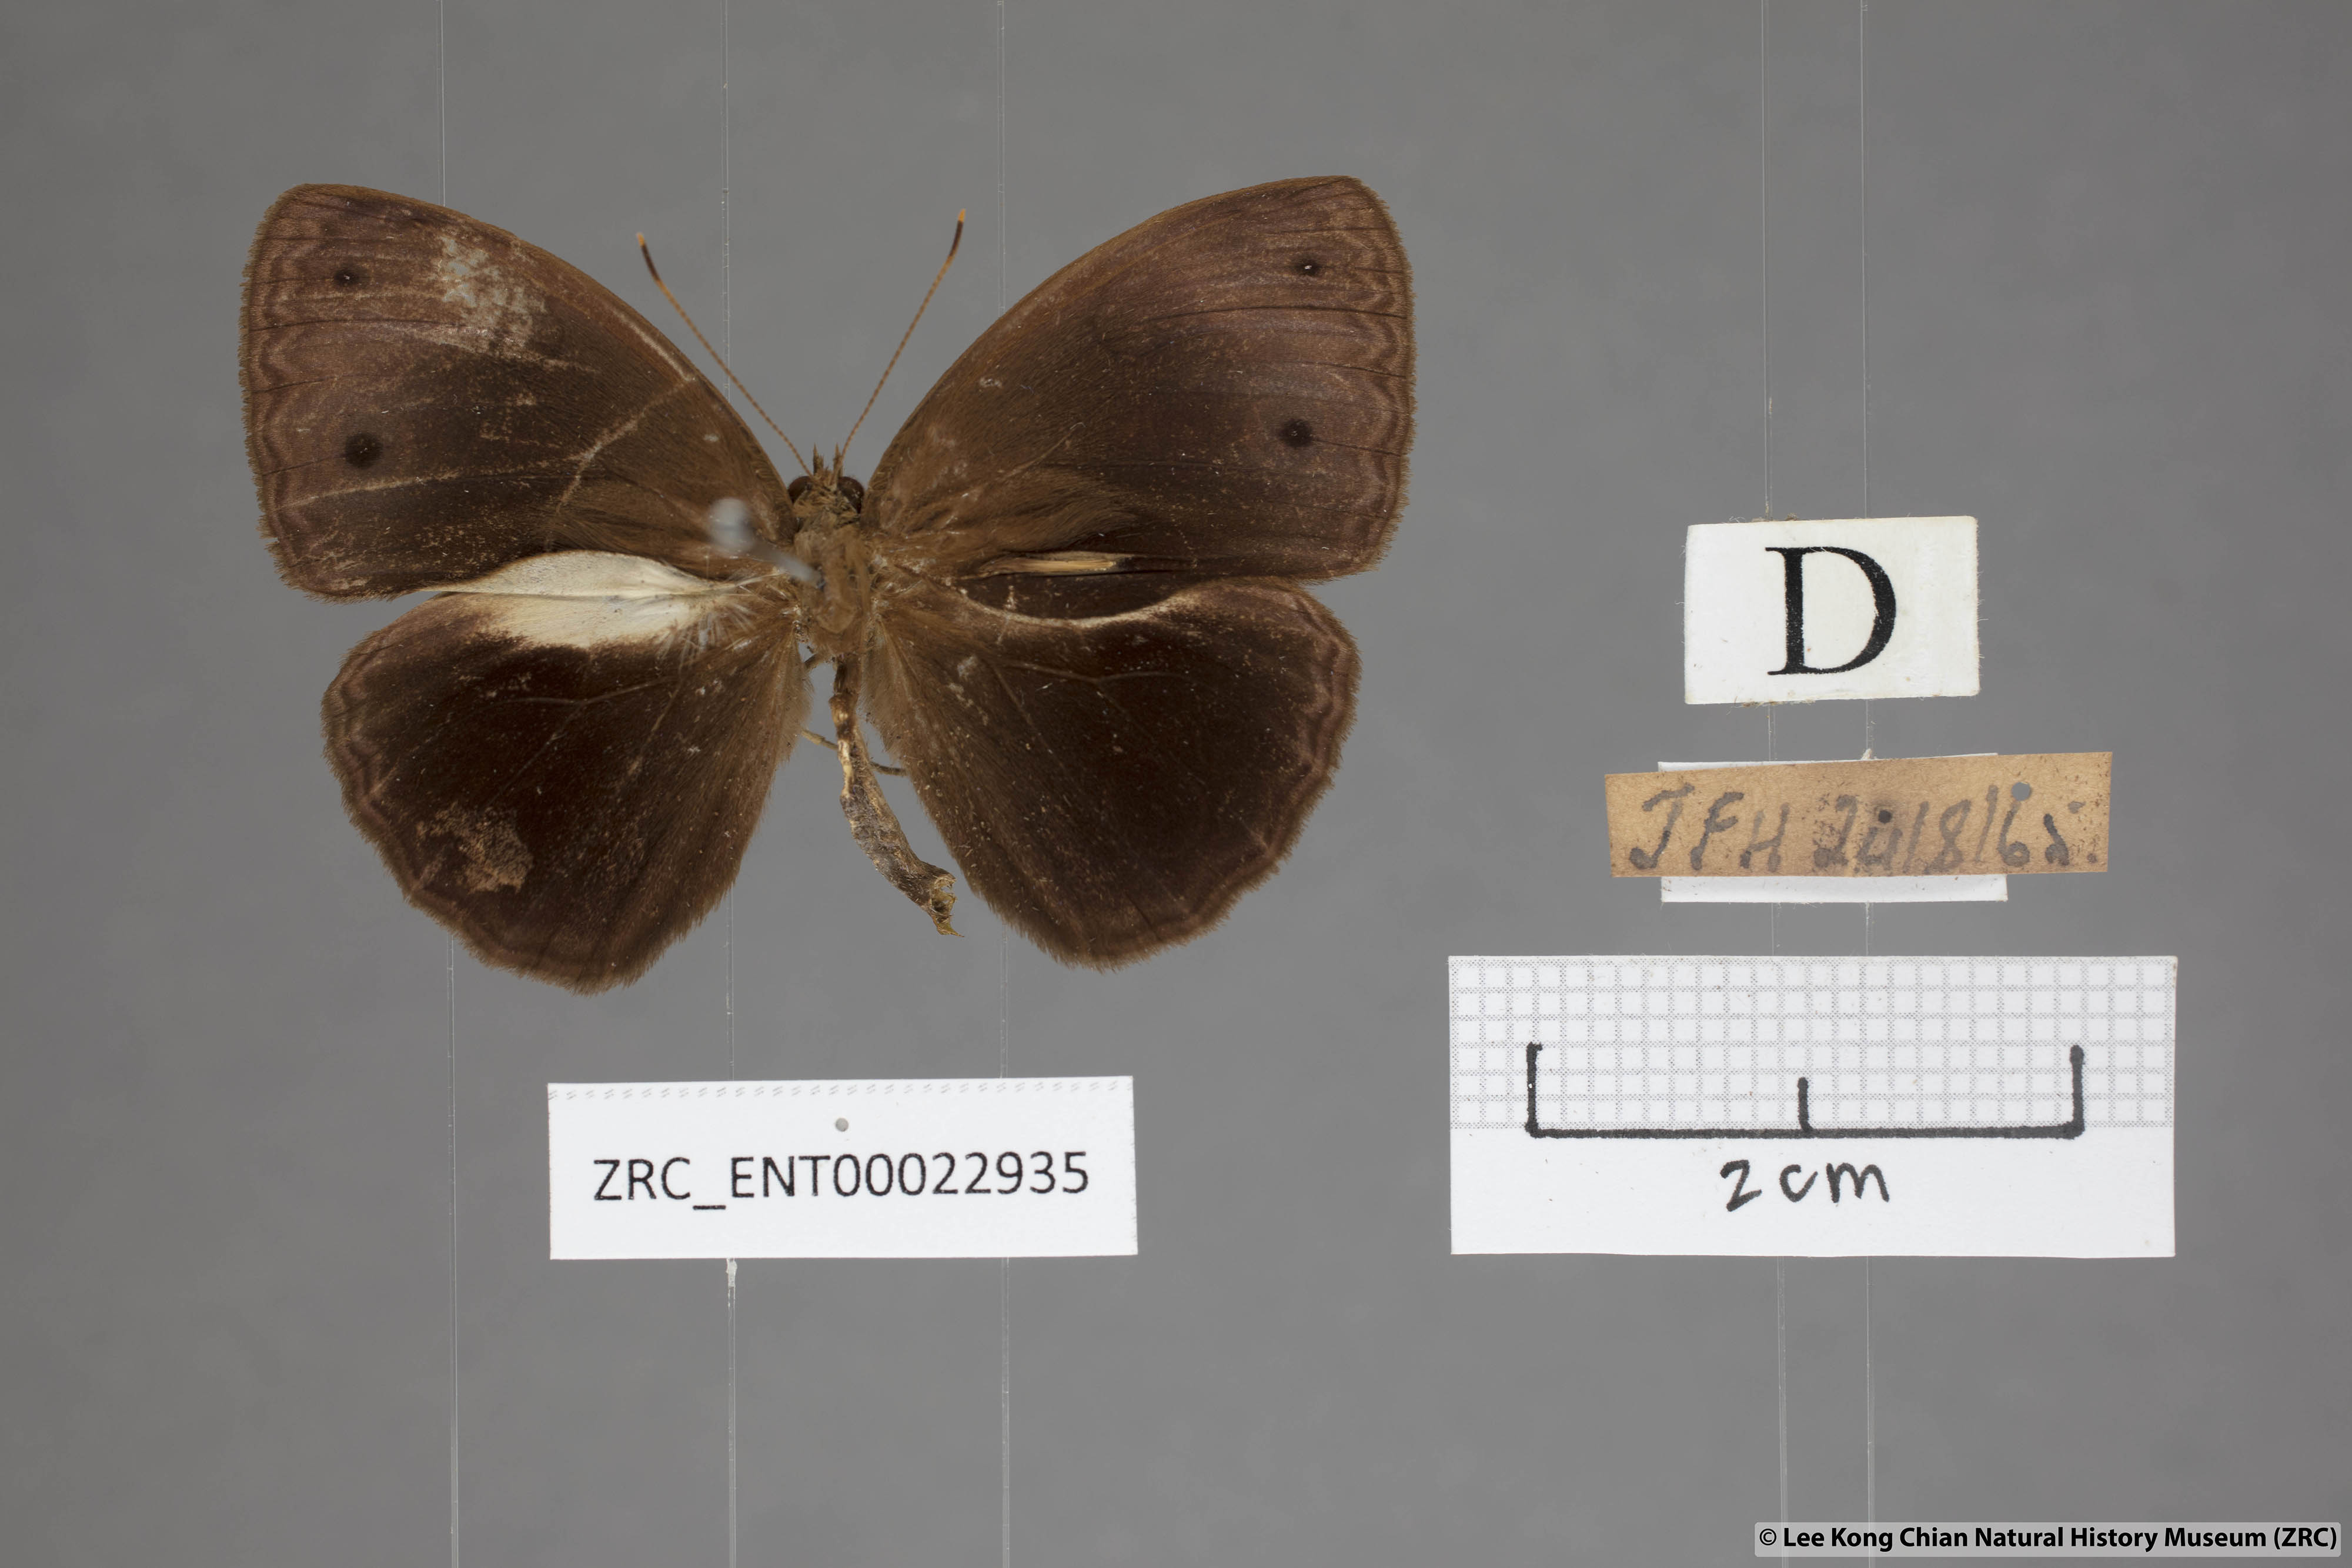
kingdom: Animalia
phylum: Arthropoda
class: Insecta
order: Lepidoptera
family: Nymphalidae
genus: Mycalesis
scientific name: Mycalesis maianeas
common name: Bandless bushbrown
